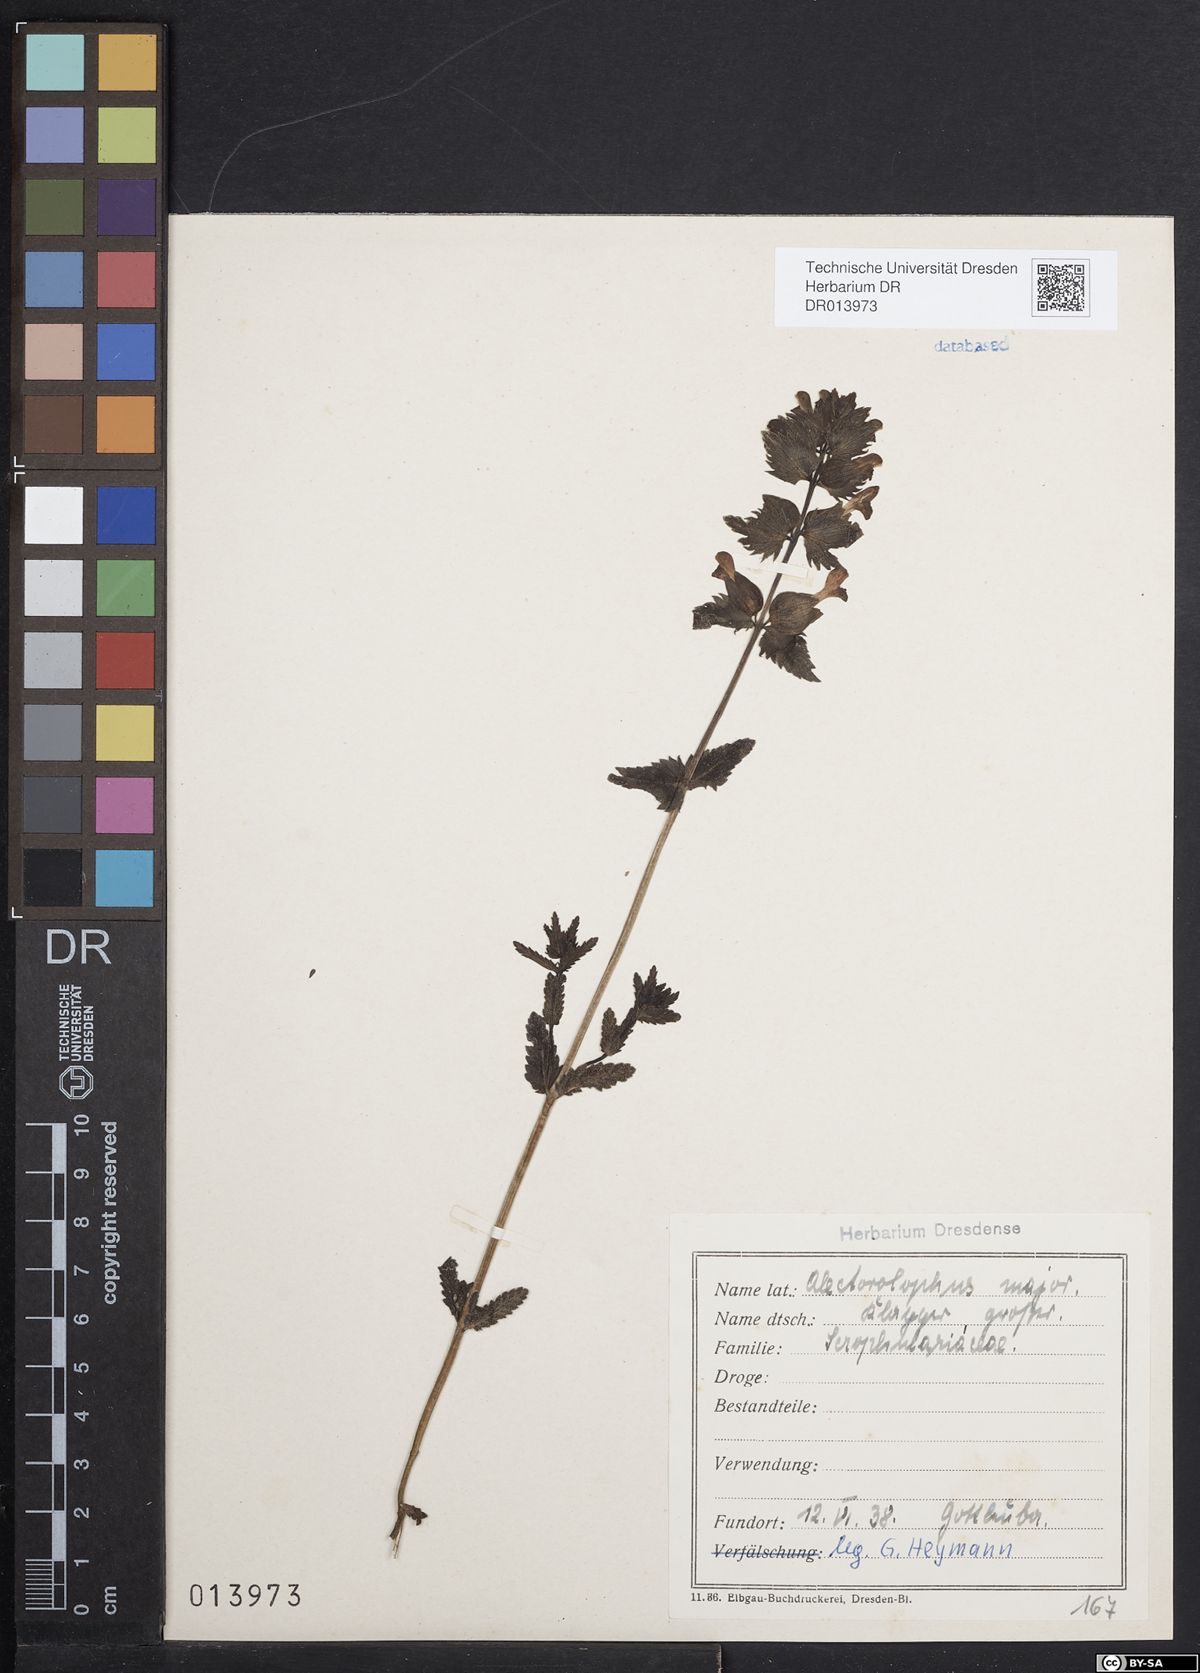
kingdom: Plantae
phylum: Tracheophyta
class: Magnoliopsida
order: Lamiales
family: Orobanchaceae
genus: Rhinanthus
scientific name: Rhinanthus serotinus
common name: Late-flowering yellow rattle
